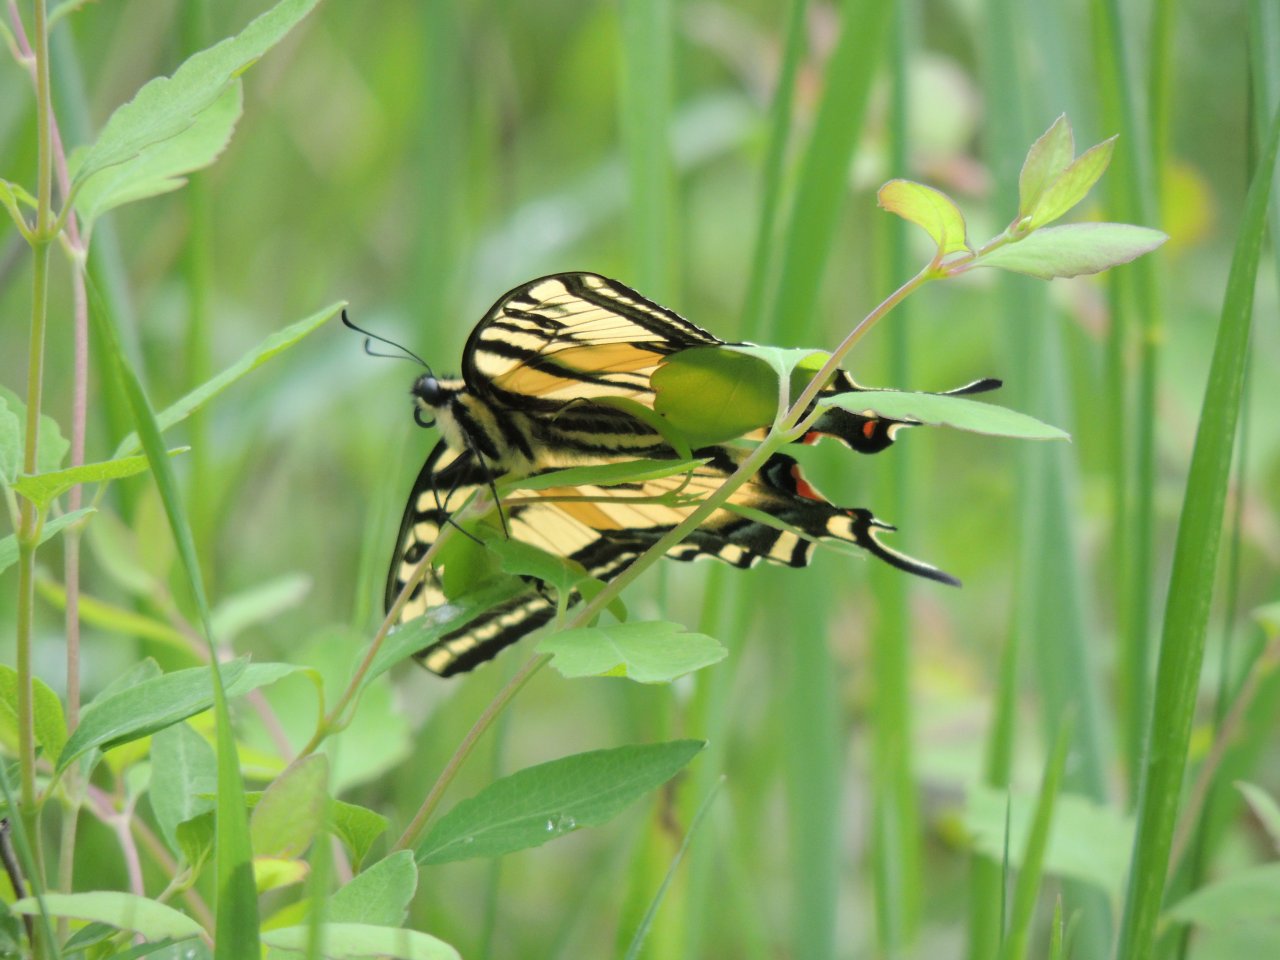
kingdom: Animalia
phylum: Arthropoda
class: Insecta
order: Lepidoptera
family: Papilionidae
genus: Papilio
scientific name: Papilio multicaudata
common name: Two-tailed Swallowtail
